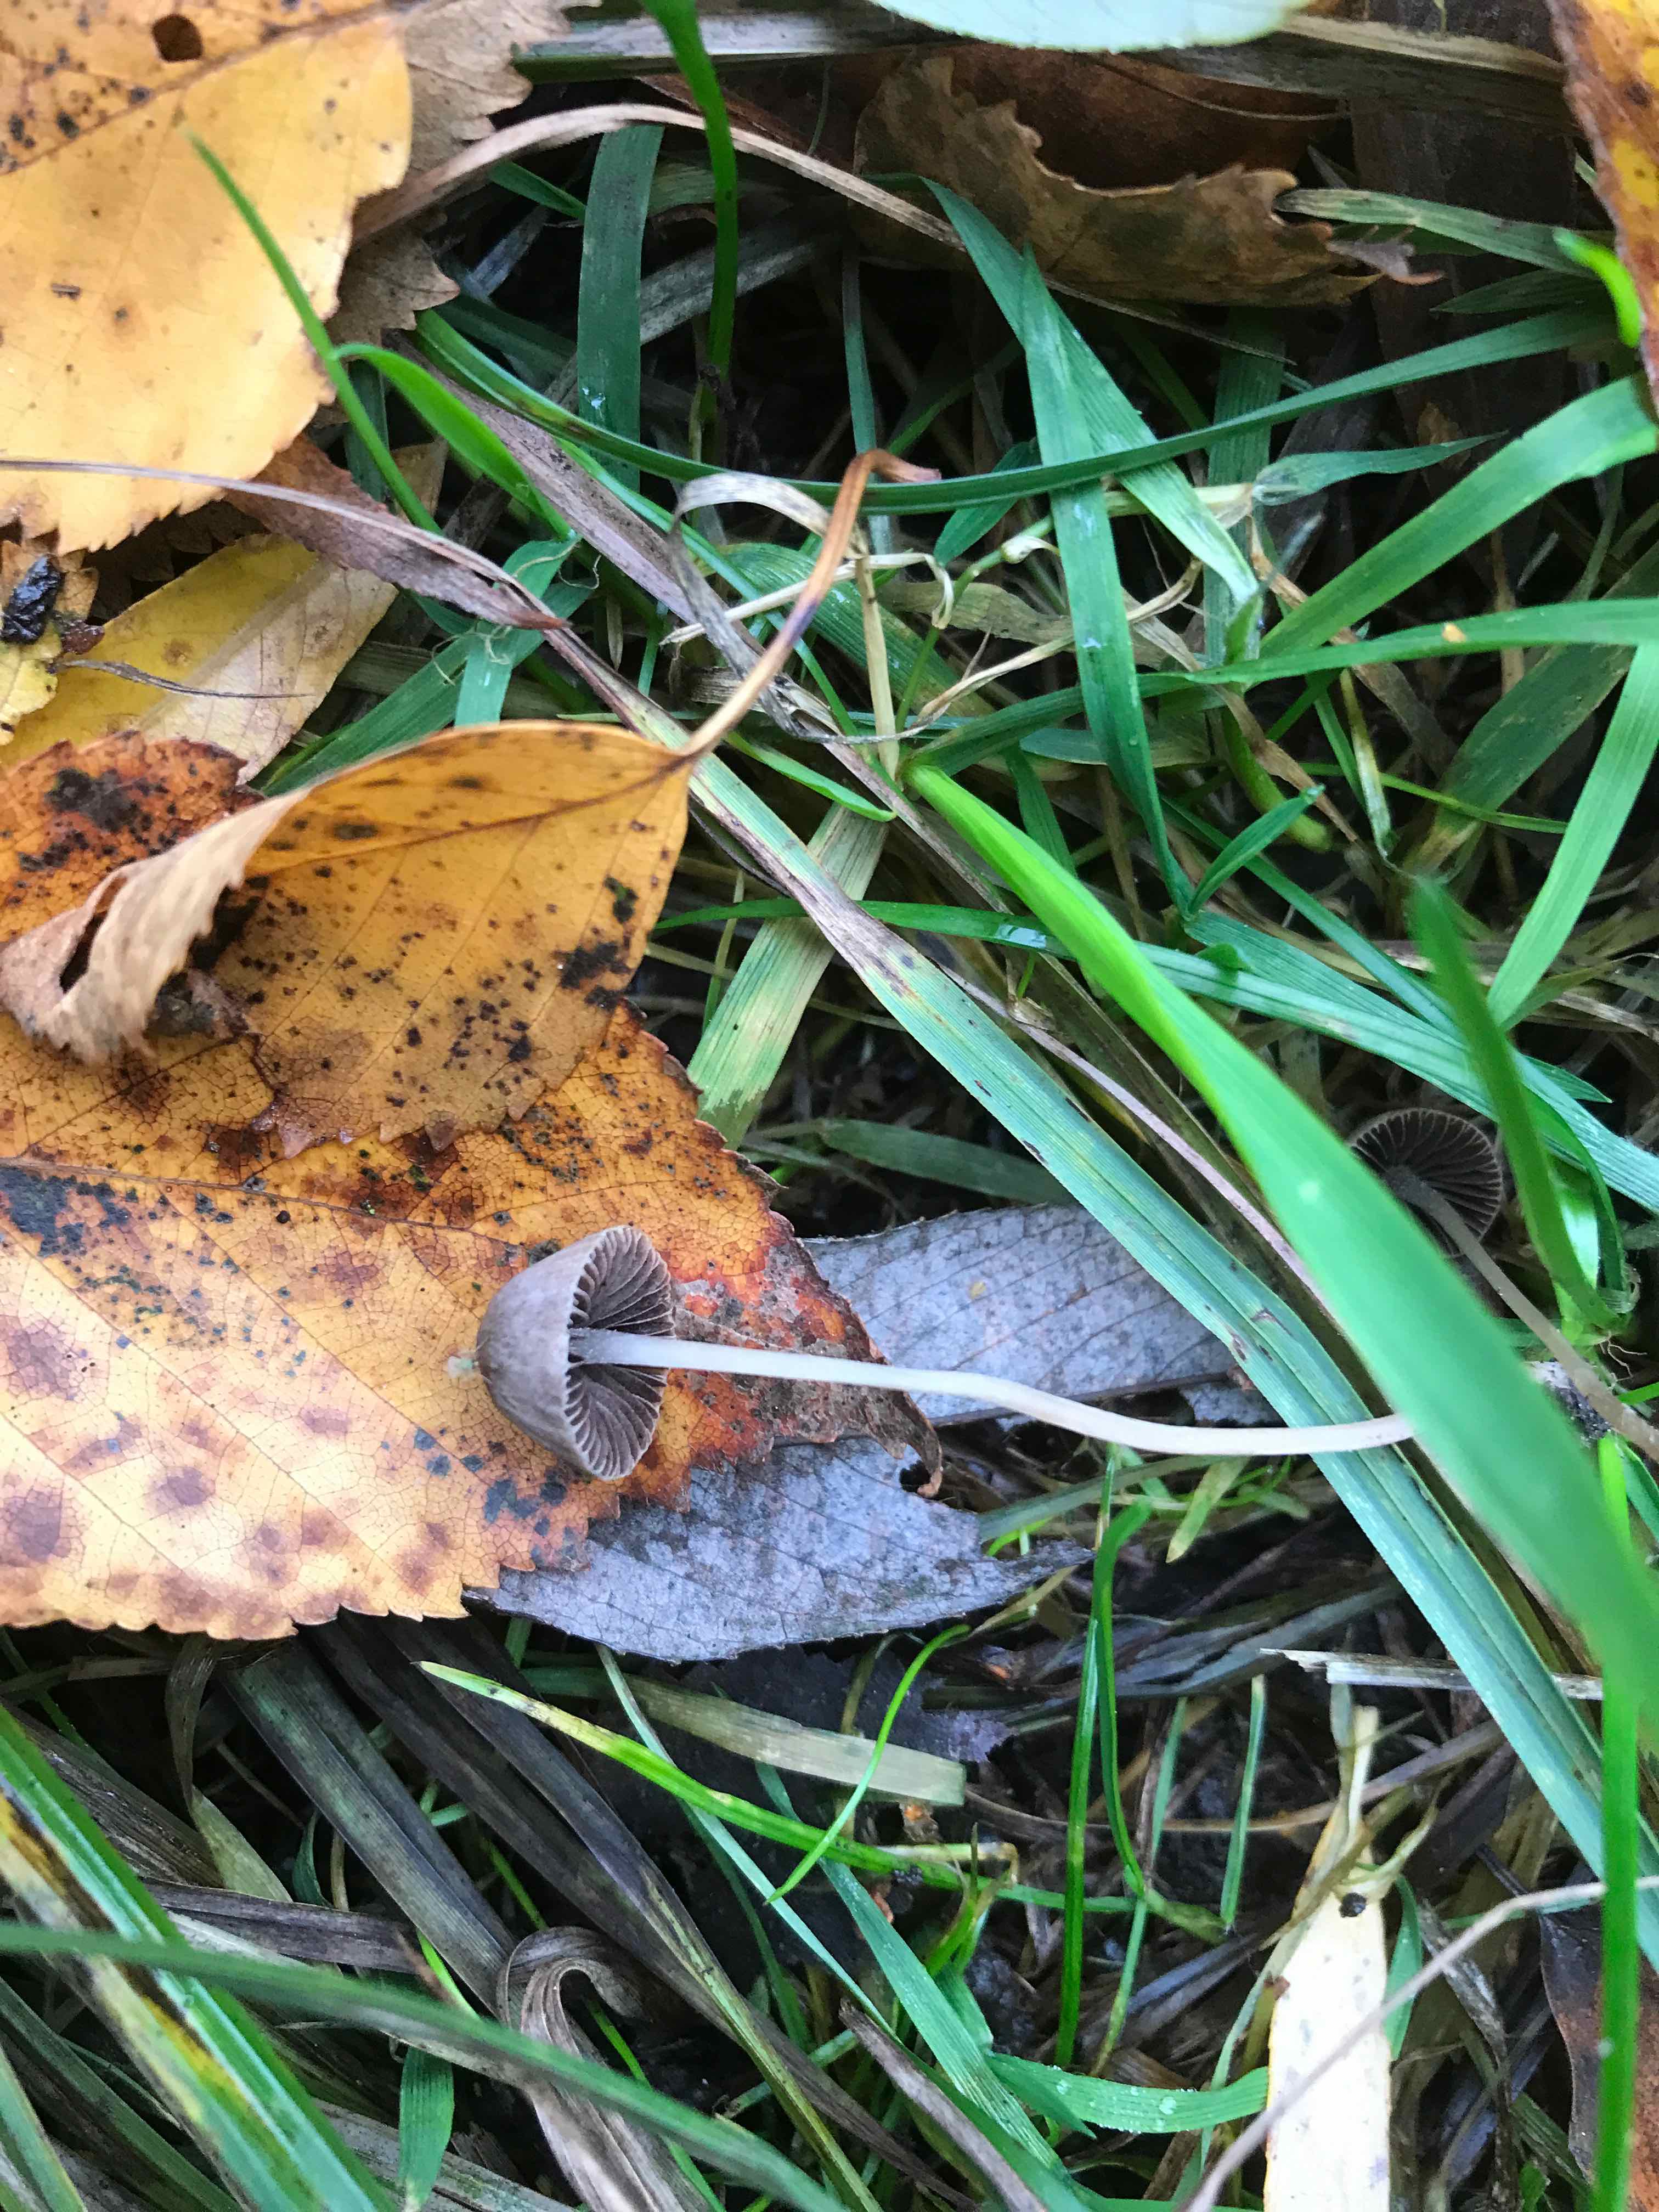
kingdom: Fungi
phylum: Basidiomycota
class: Agaricomycetes
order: Agaricales
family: Psathyrellaceae
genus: Psathyrella
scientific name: Psathyrella
